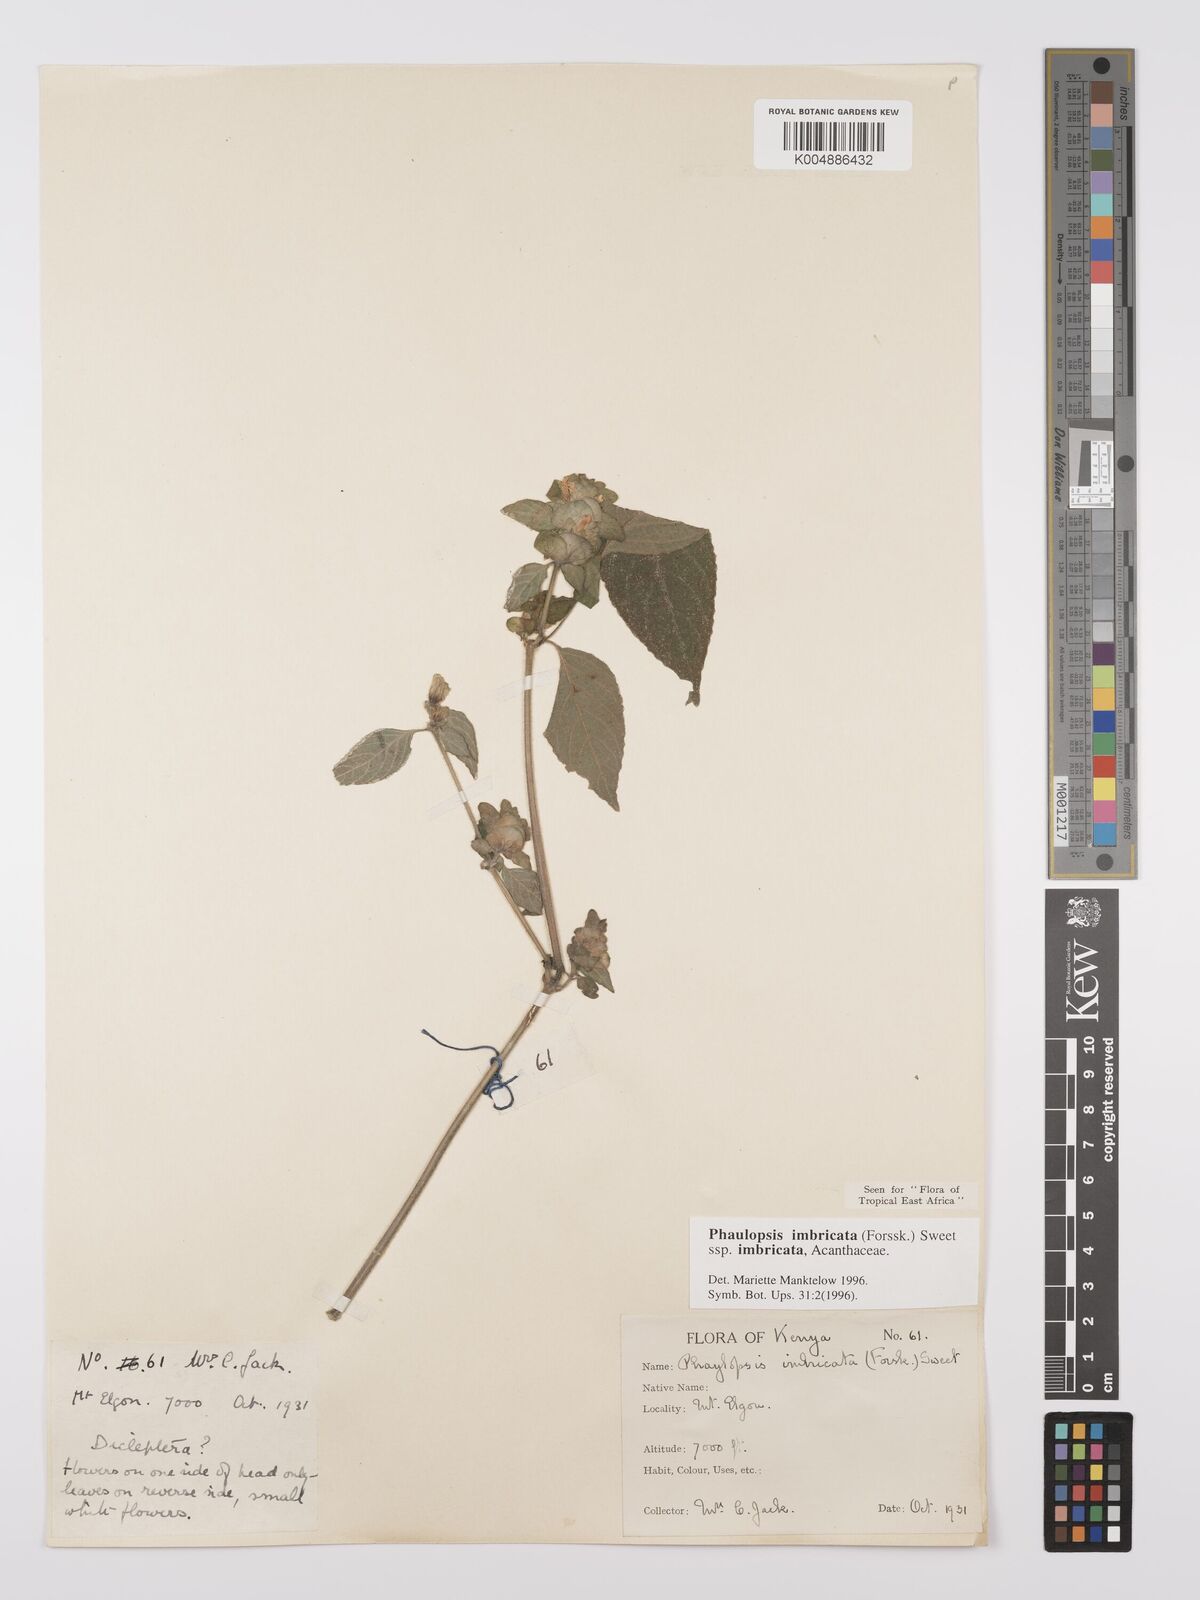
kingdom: Plantae
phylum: Tracheophyta
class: Magnoliopsida
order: Lamiales
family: Acanthaceae
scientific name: Acanthaceae
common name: Acanthaceae
